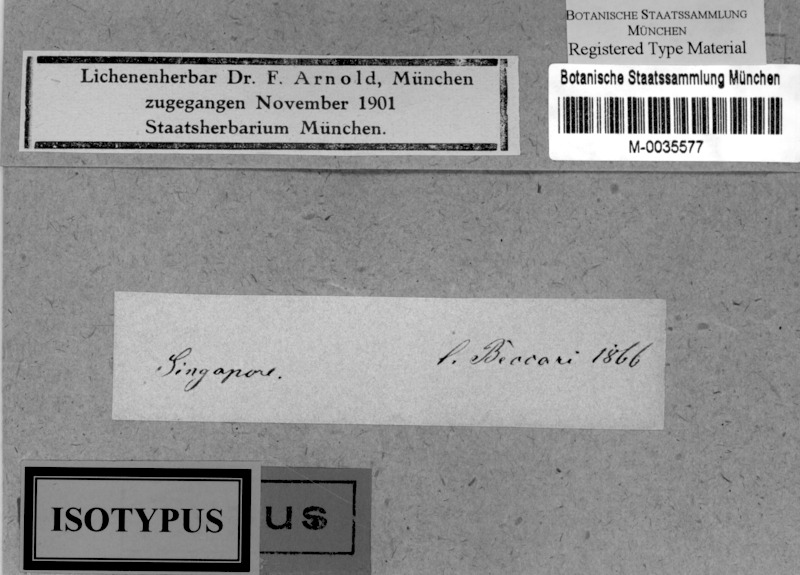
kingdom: Fungi
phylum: Ascomycota
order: Thelocarpales
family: Thelocarpaceae
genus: Thelocarpon
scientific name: Thelocarpon
